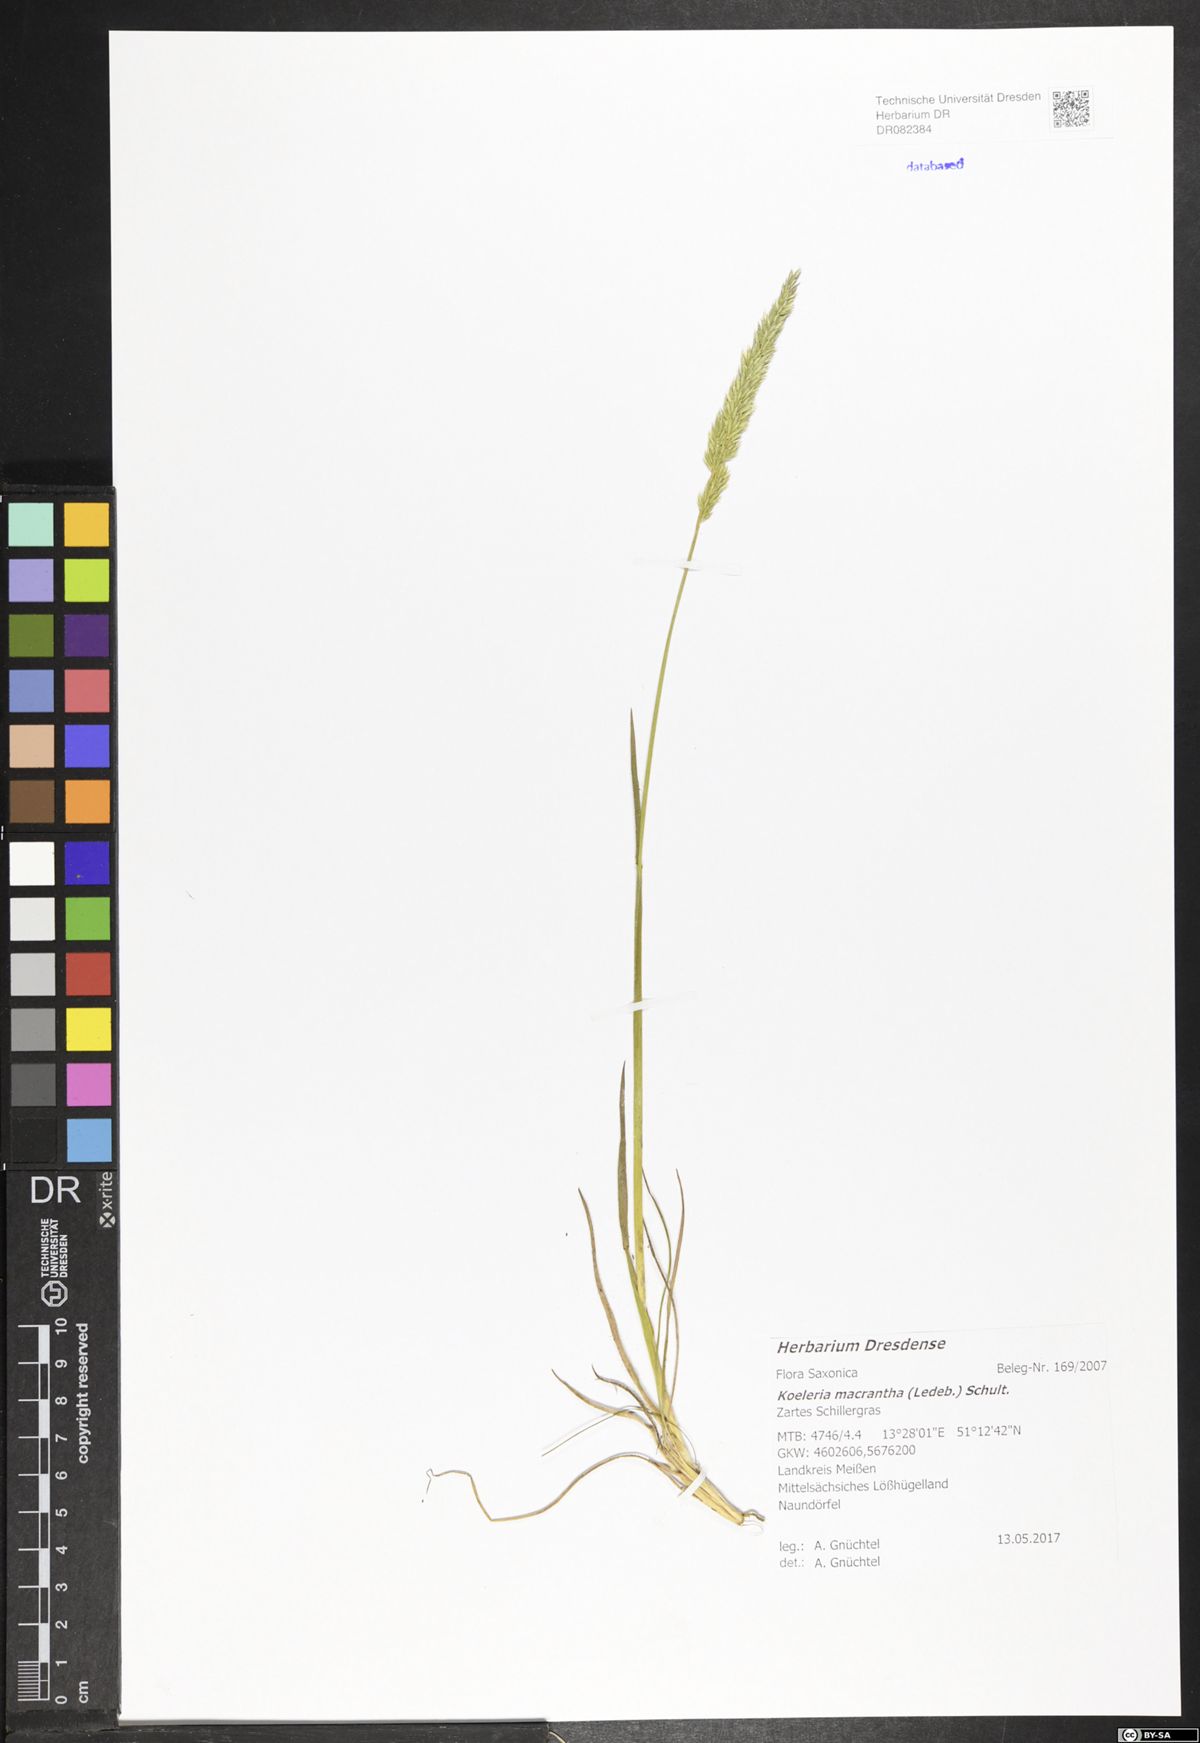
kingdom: Plantae
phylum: Tracheophyta
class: Liliopsida
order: Poales
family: Poaceae
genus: Koeleria
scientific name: Koeleria macrantha
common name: Crested hair-grass
